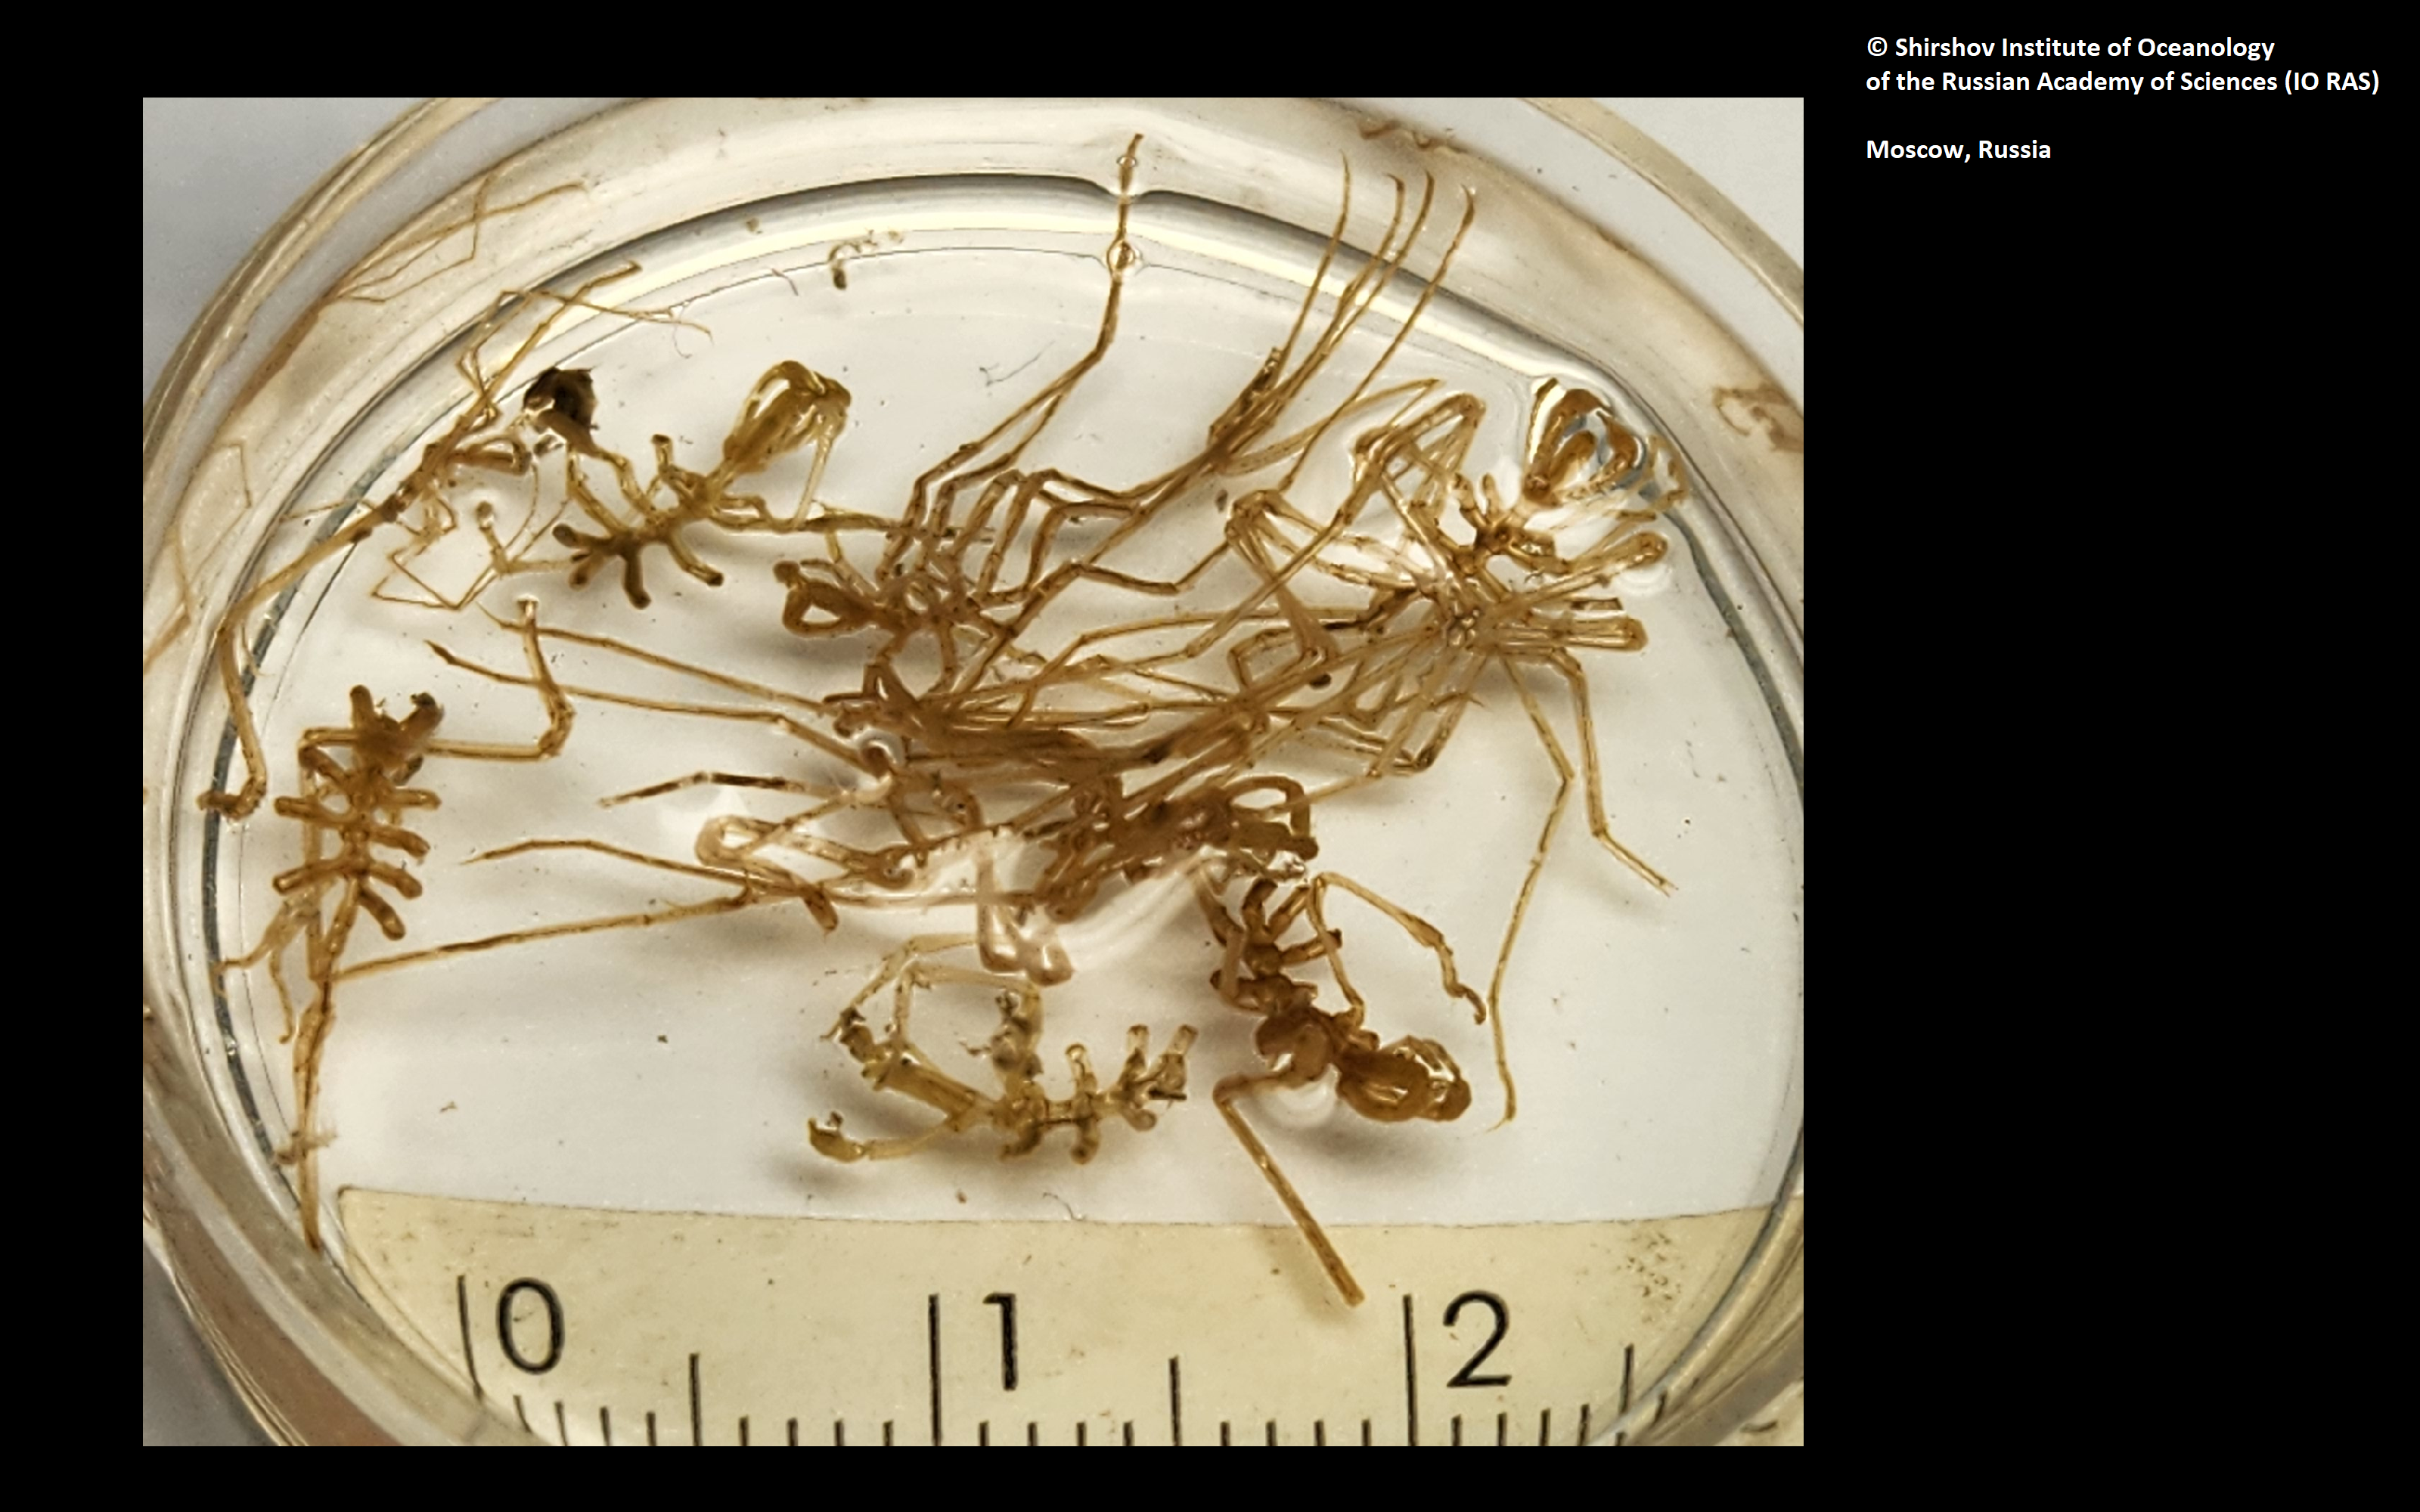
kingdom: Animalia
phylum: Arthropoda
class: Pycnogonida
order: Pantopoda
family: Nymphonidae
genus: Nymphon
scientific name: Nymphon grossipes
